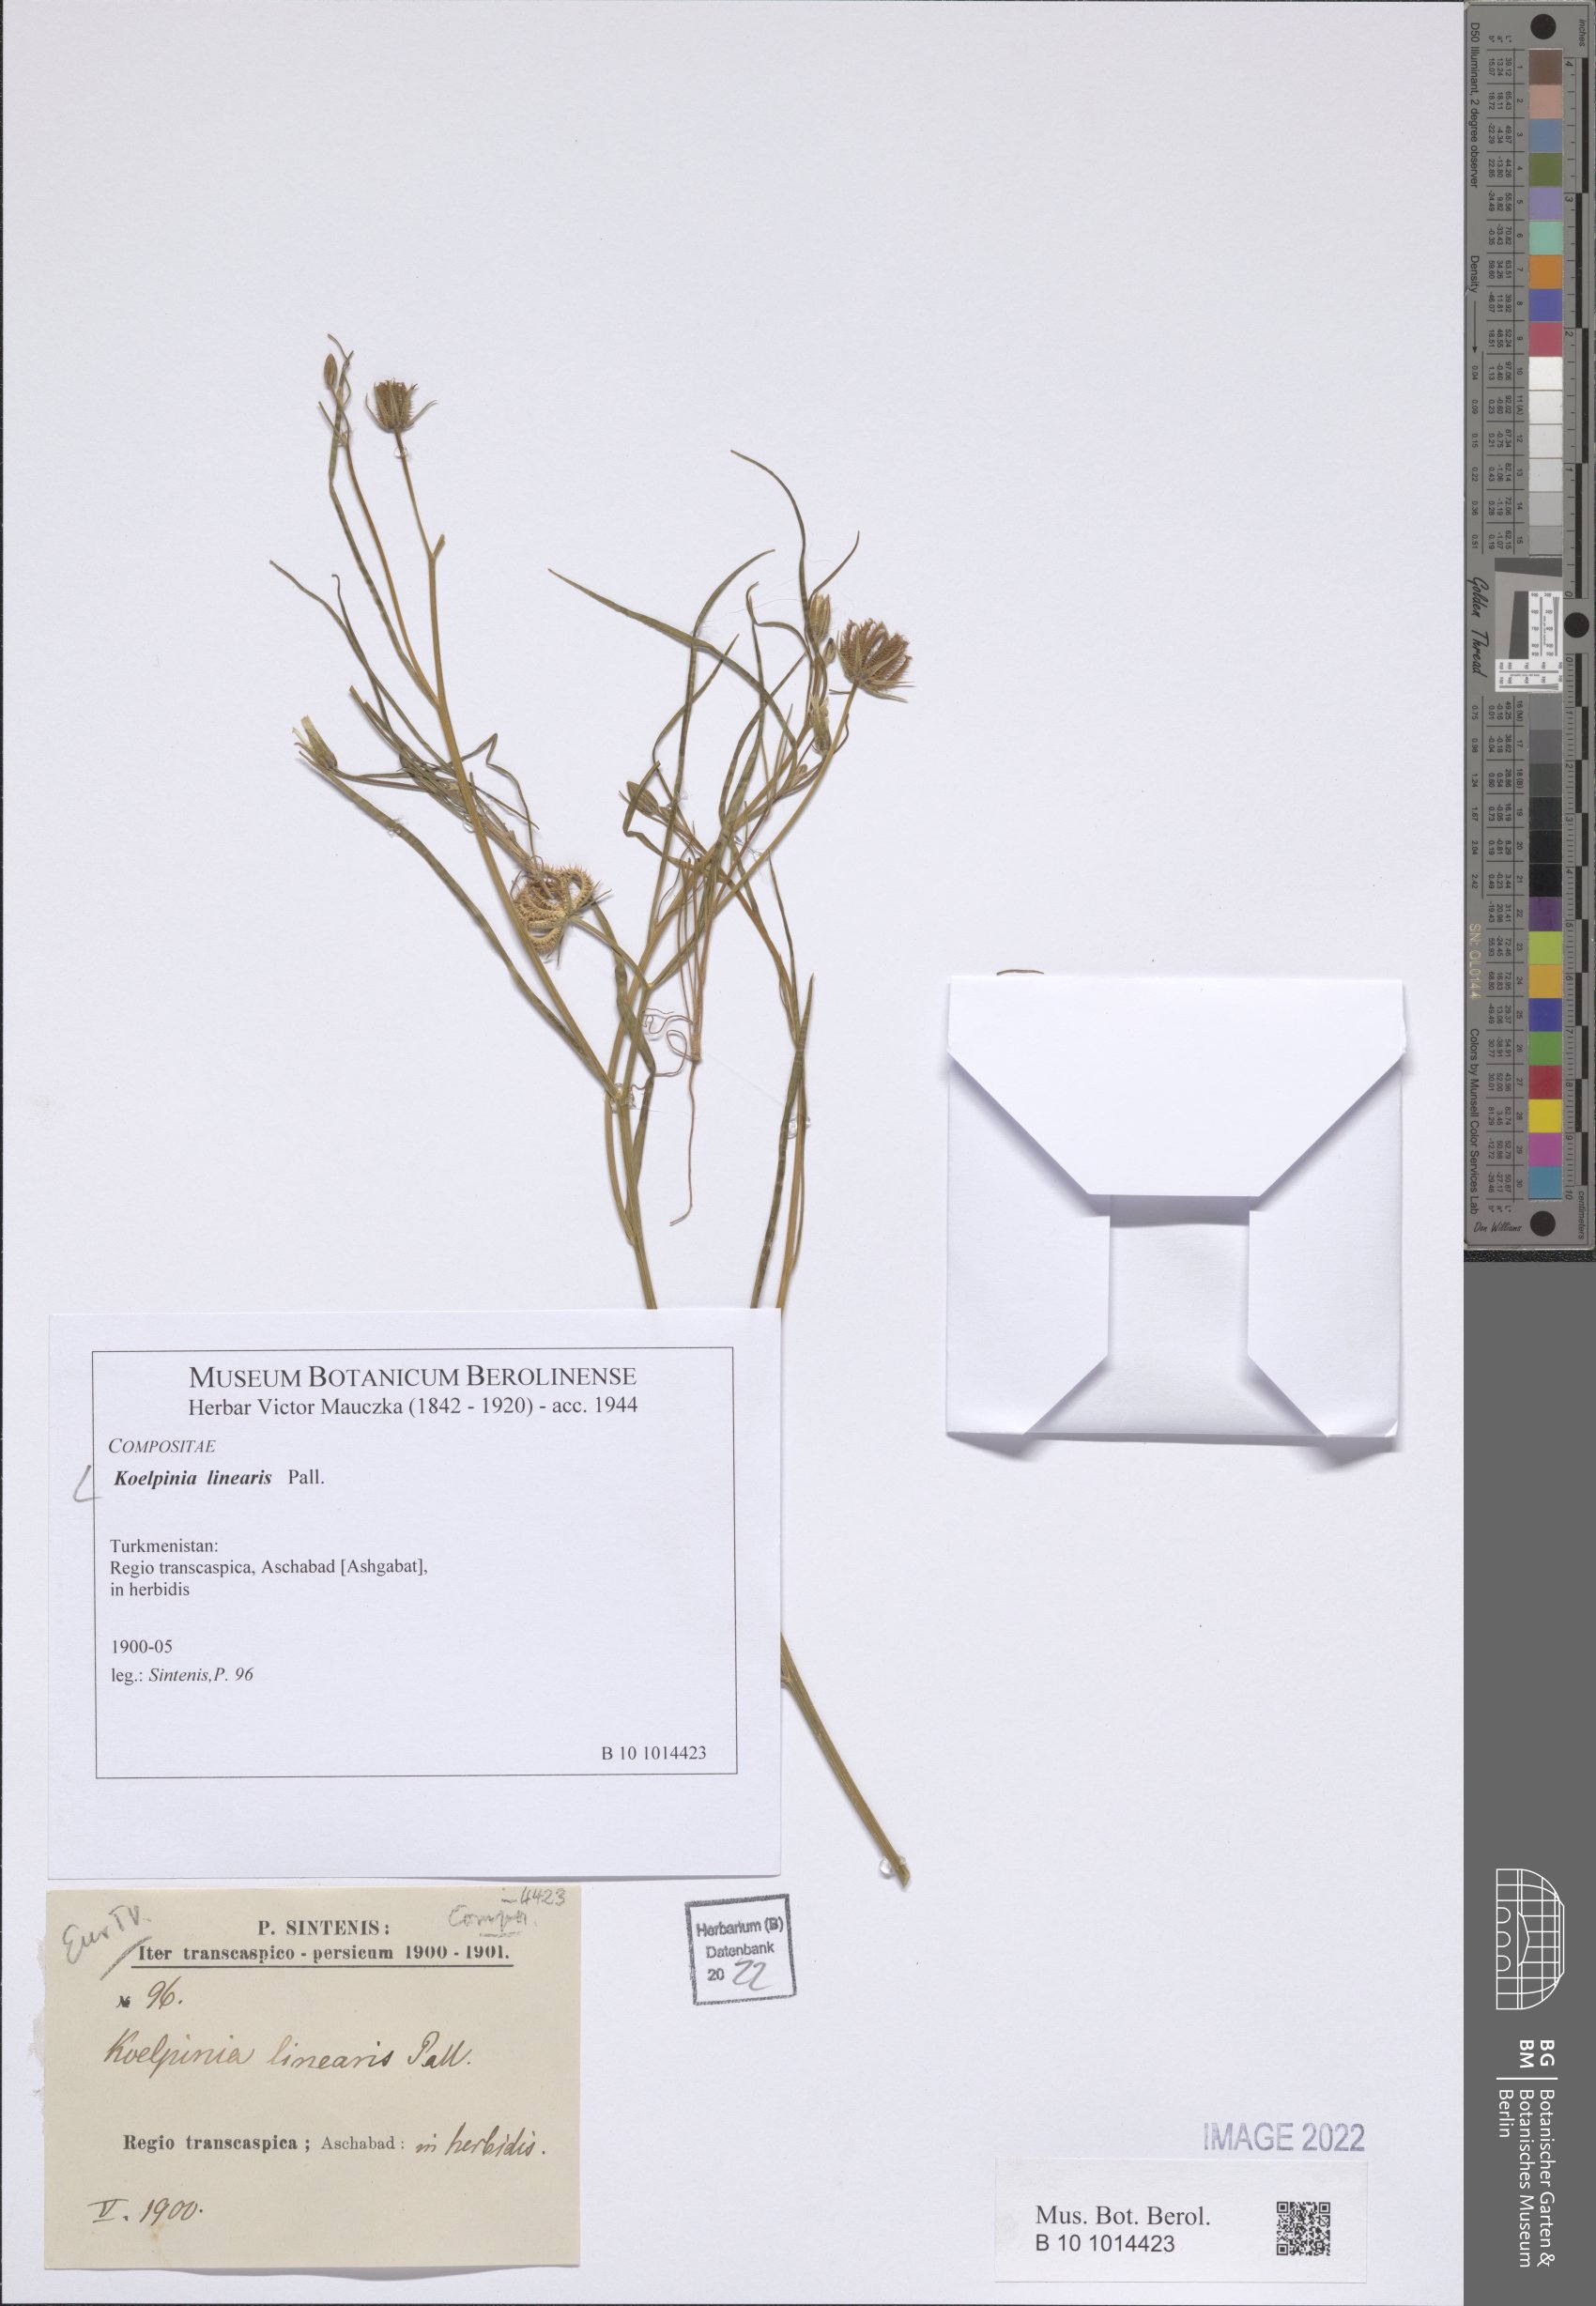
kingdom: Plantae
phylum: Tracheophyta
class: Magnoliopsida
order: Asterales
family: Asteraceae
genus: Koelpinia
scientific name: Koelpinia linearis
